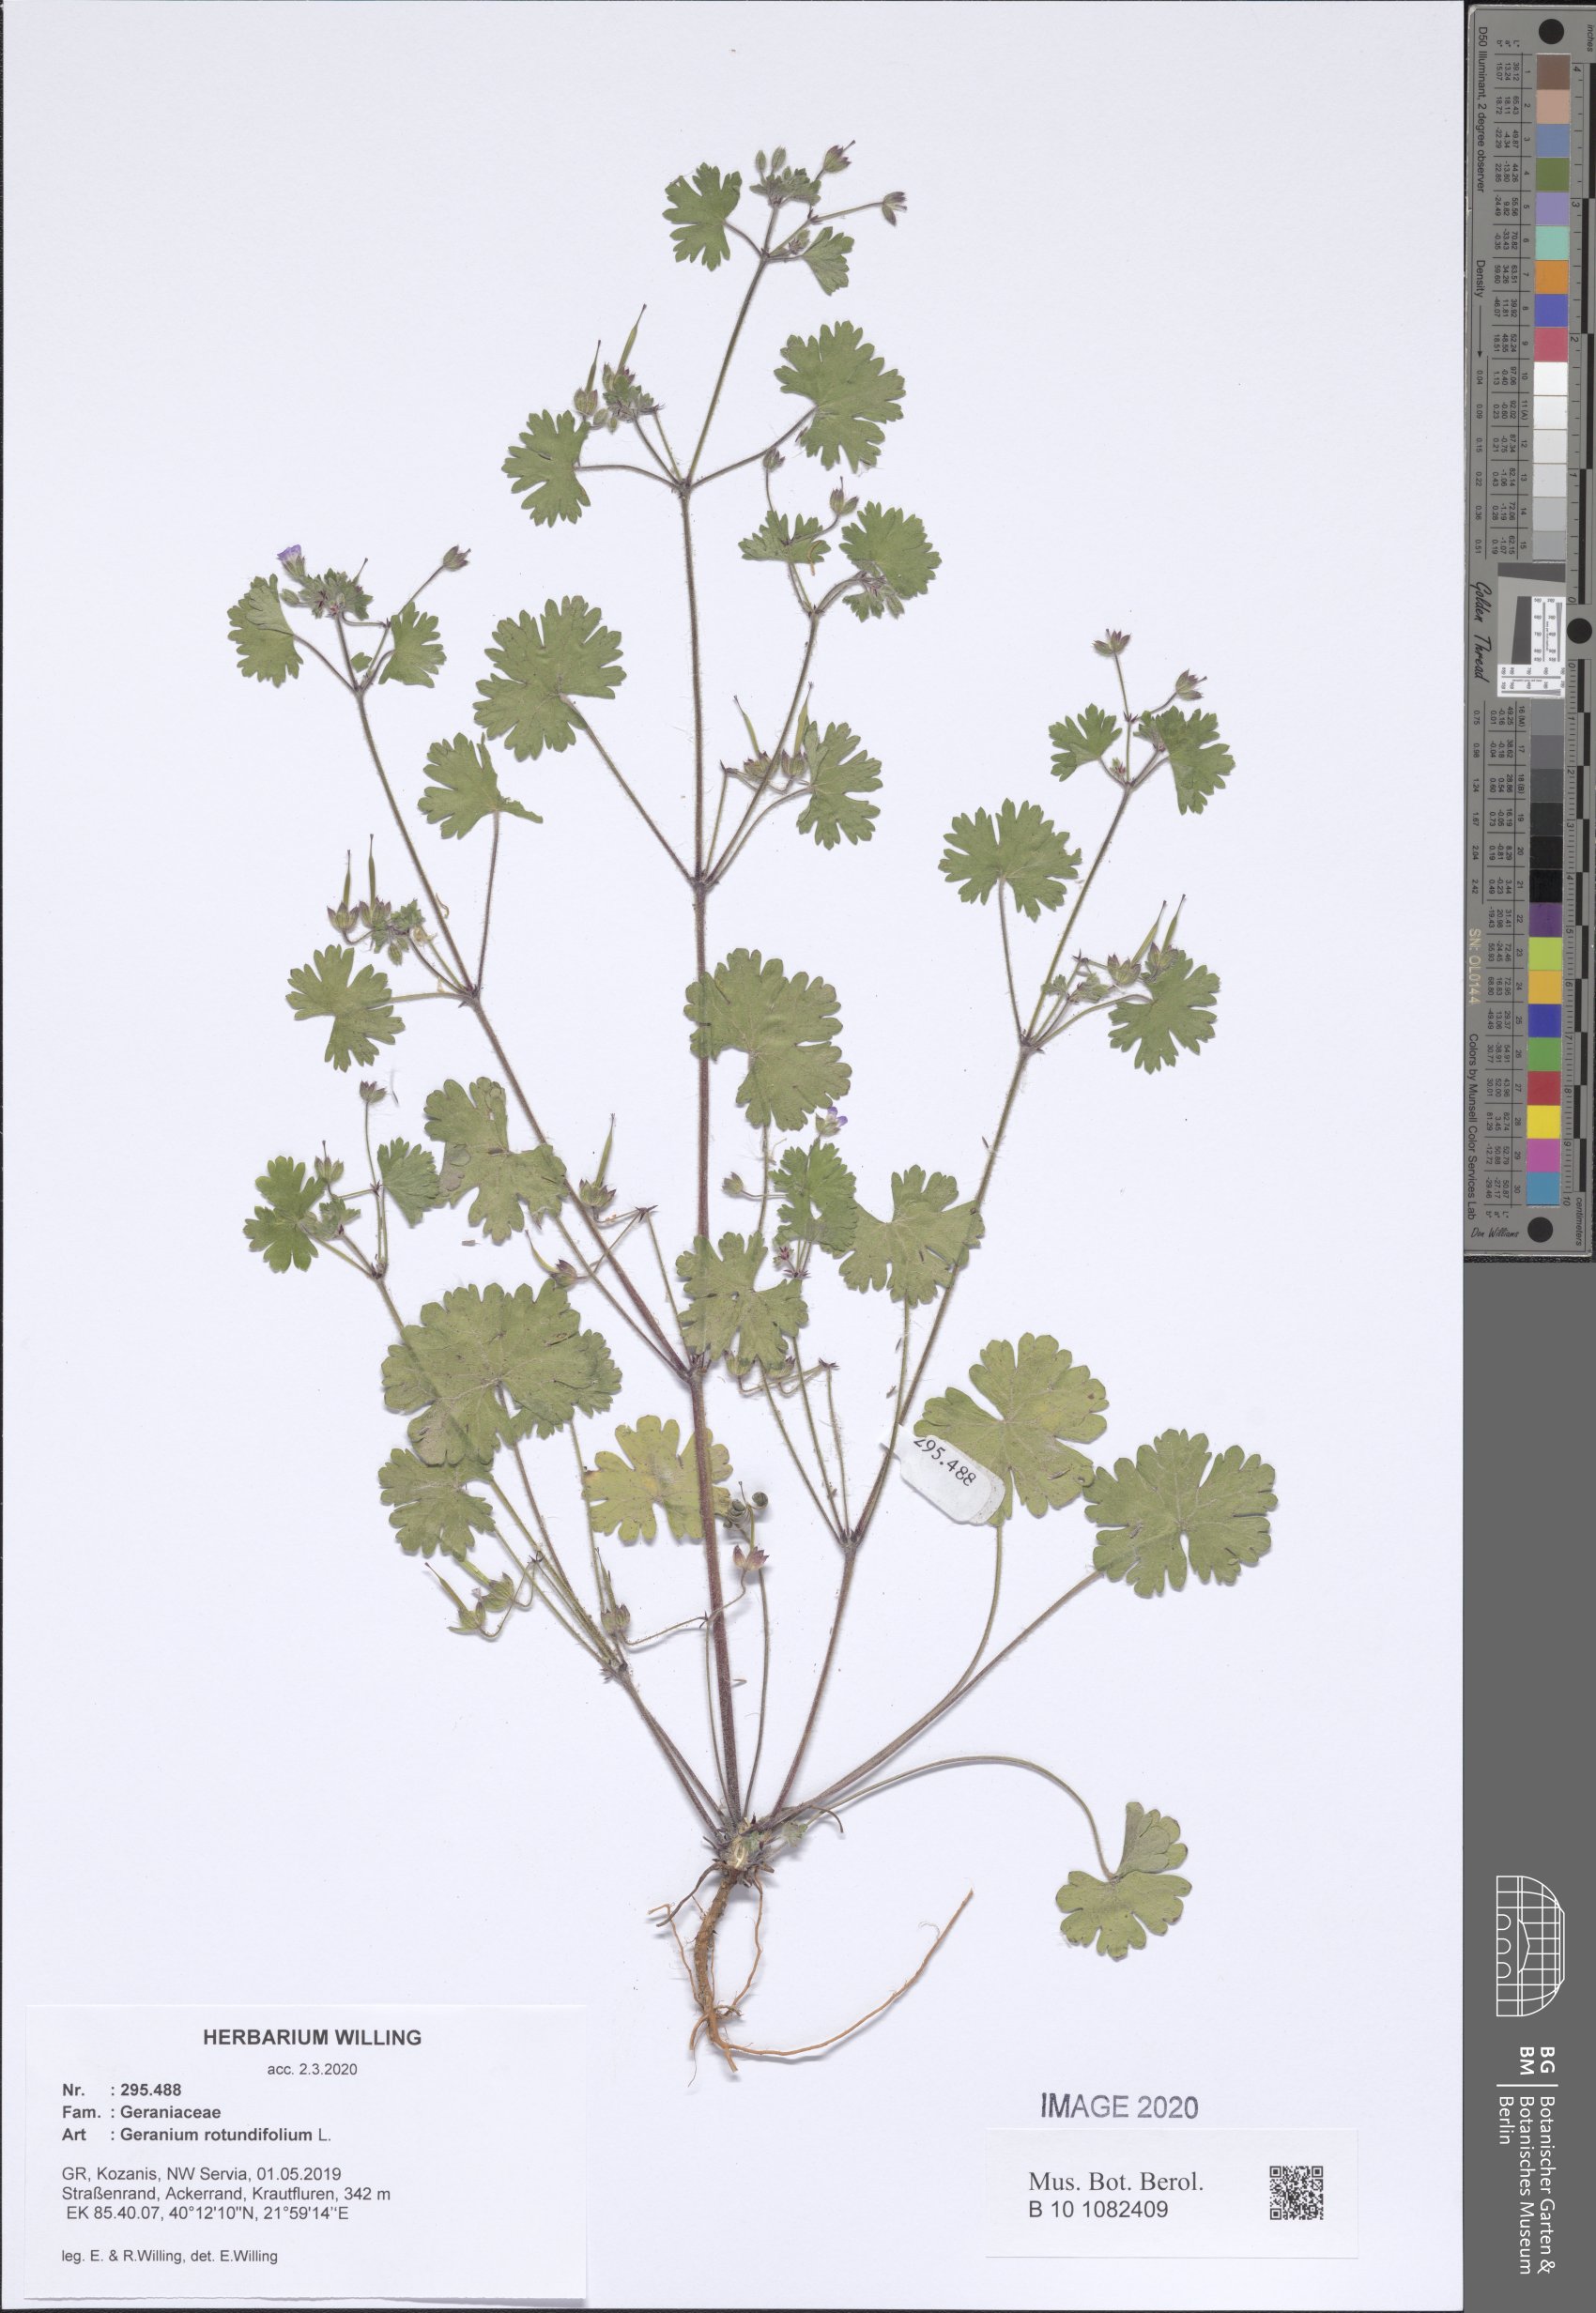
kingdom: Plantae
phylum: Tracheophyta
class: Magnoliopsida
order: Geraniales
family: Geraniaceae
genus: Geranium
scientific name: Geranium rotundifolium
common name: Round-leaved crane's-bill
